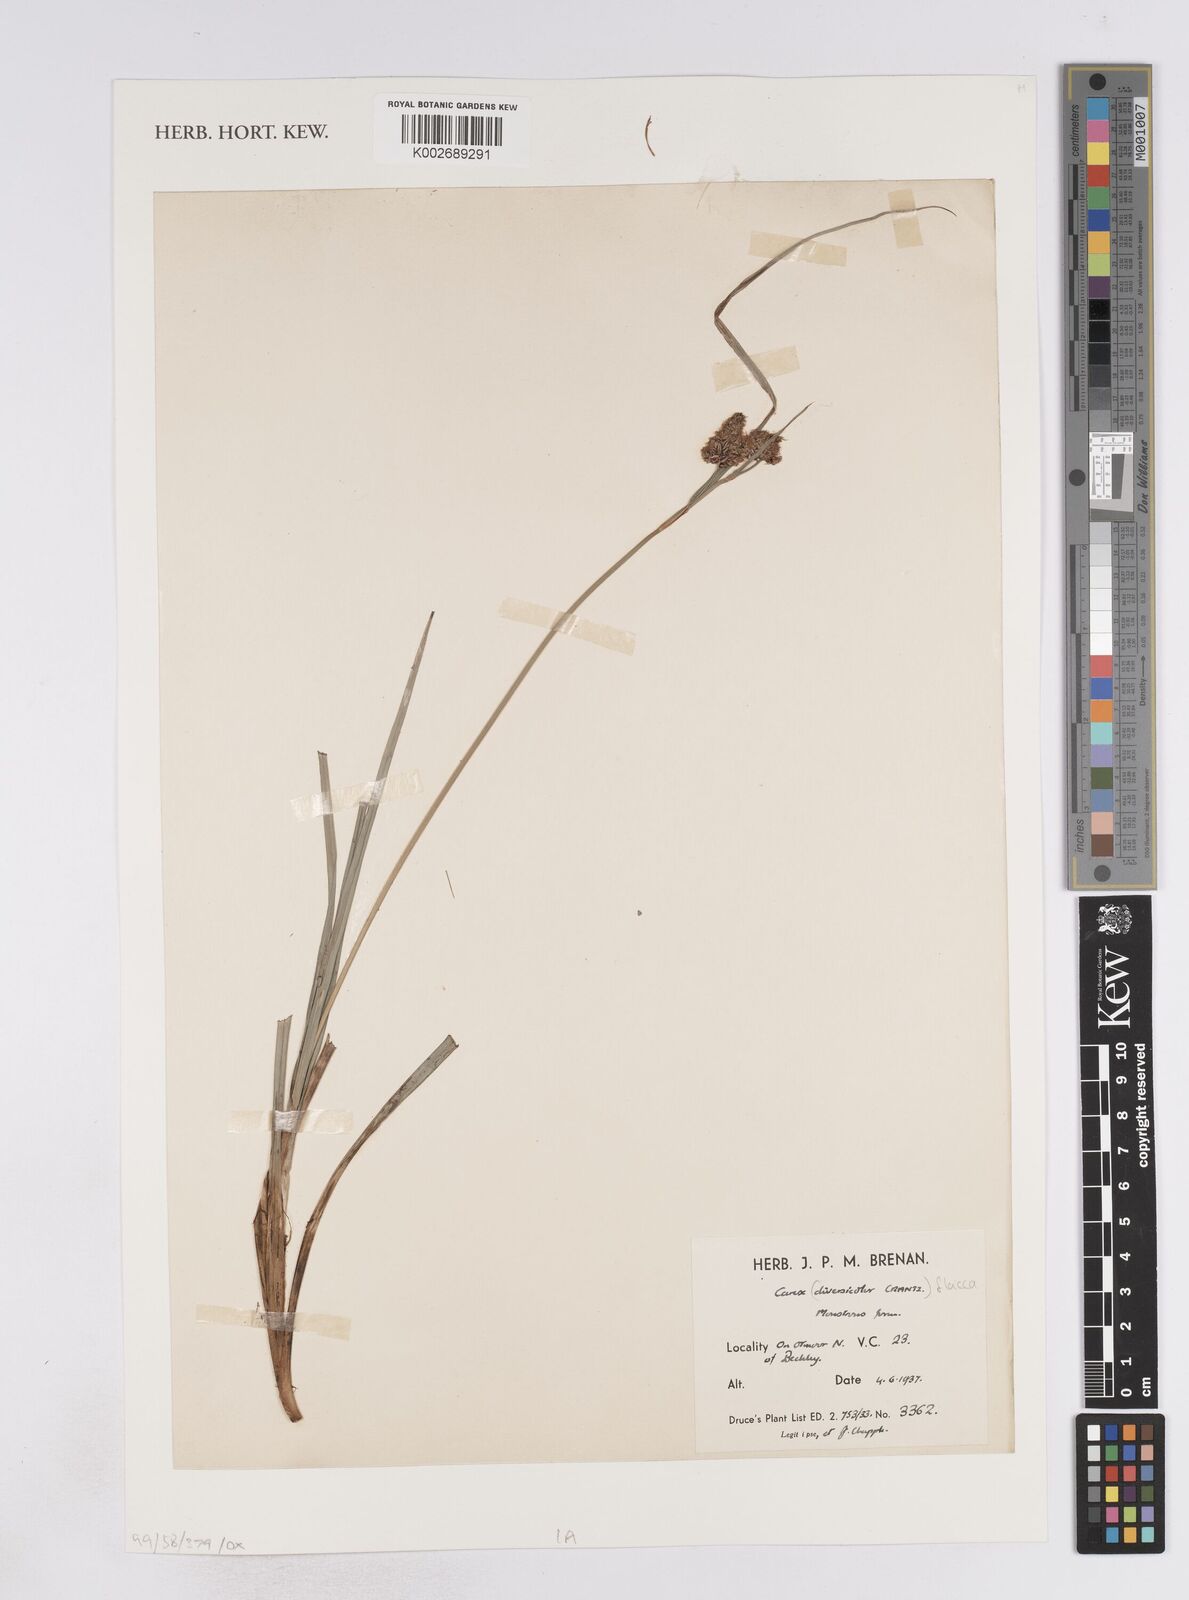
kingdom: Plantae
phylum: Tracheophyta
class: Liliopsida
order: Poales
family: Cyperaceae
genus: Carex
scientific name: Carex flacca
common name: Glaucous sedge
